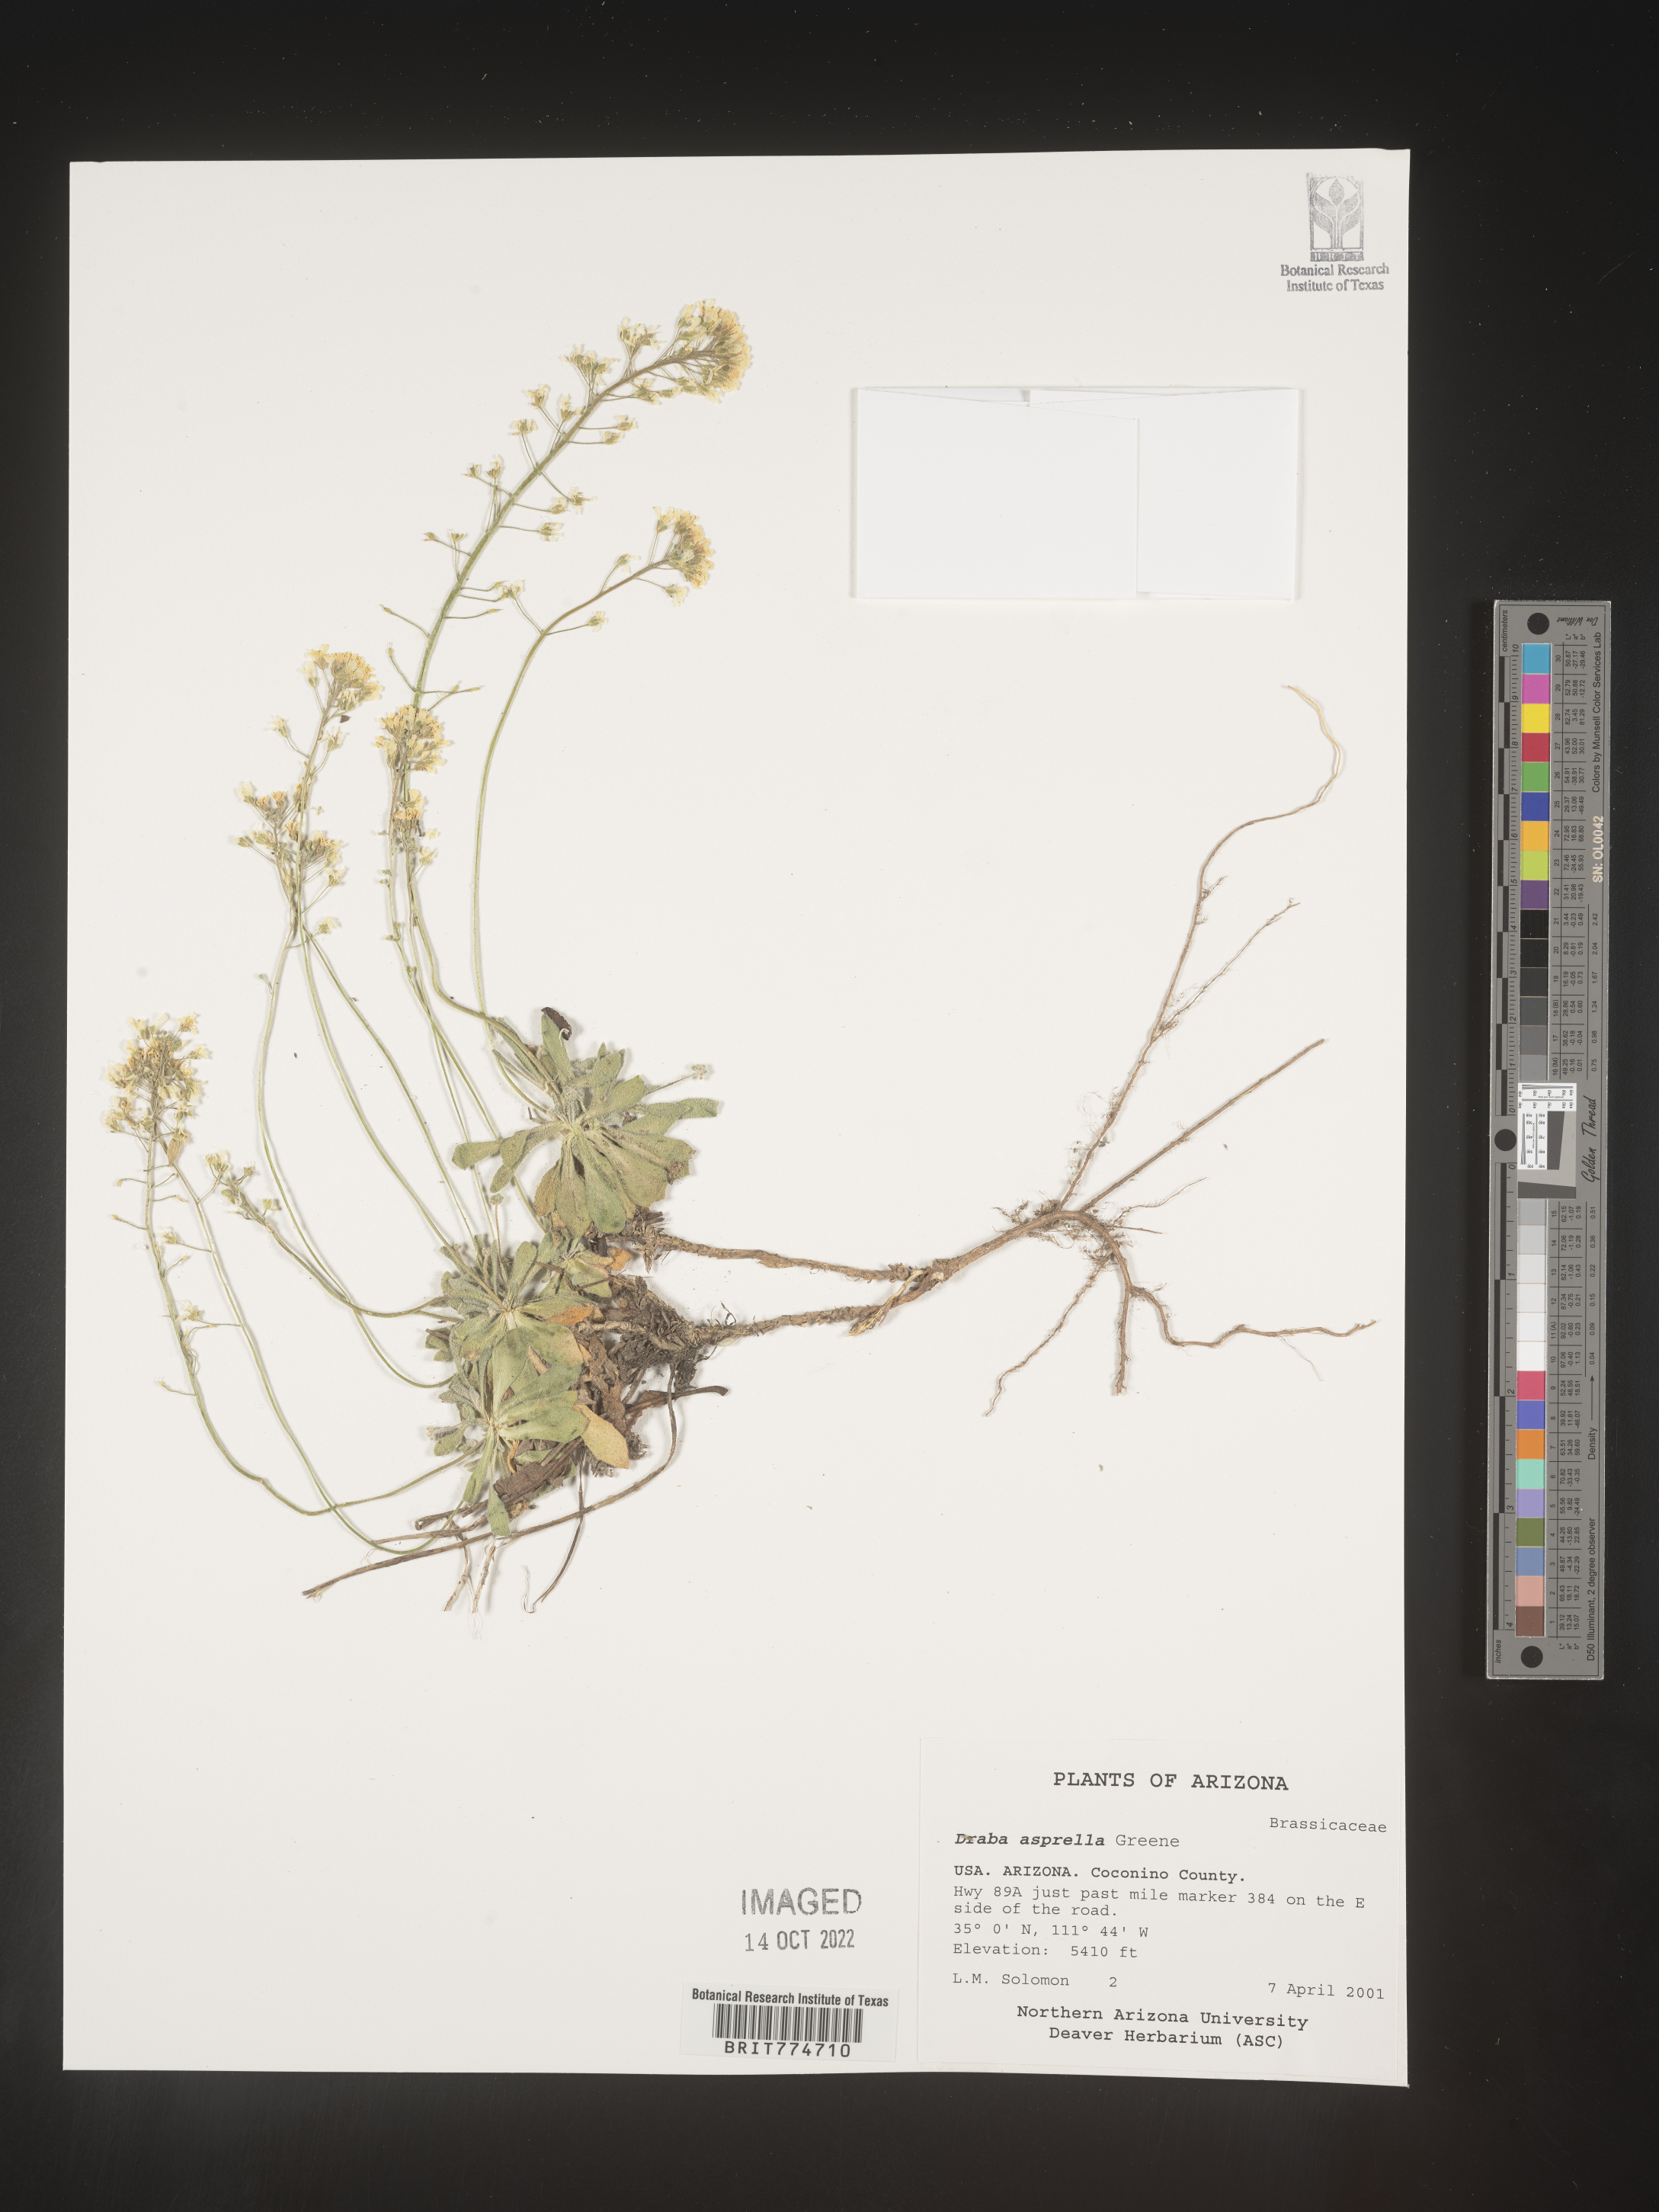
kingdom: Plantae
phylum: Tracheophyta
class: Magnoliopsida
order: Brassicales
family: Brassicaceae
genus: Draba
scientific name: Draba
